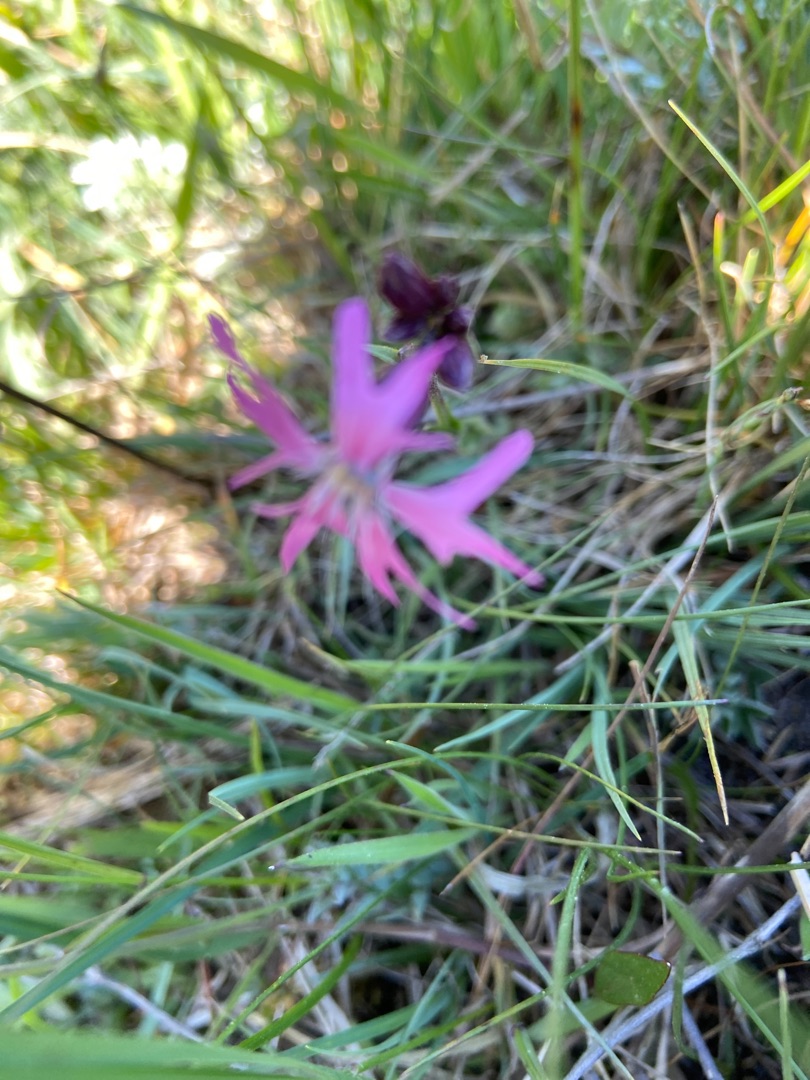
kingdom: Plantae
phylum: Tracheophyta
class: Magnoliopsida
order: Caryophyllales
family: Caryophyllaceae
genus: Silene
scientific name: Silene flos-cuculi
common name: Trævlekrone
